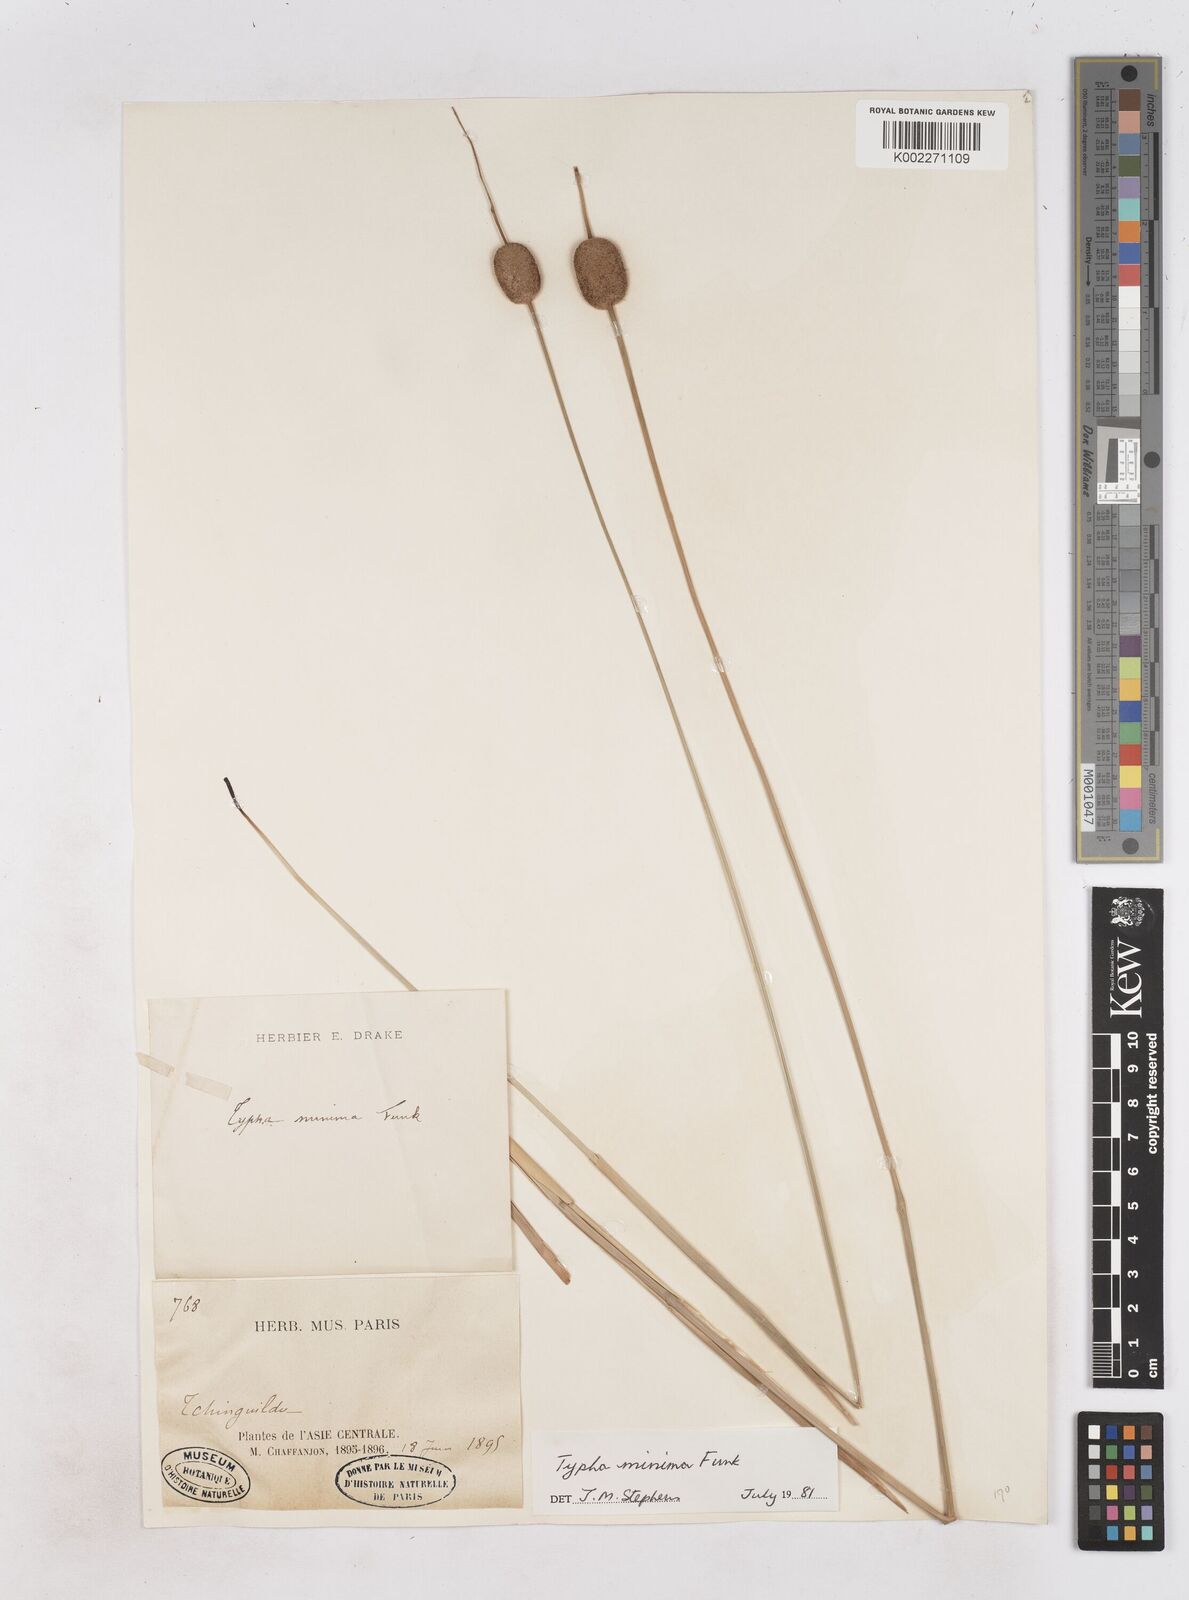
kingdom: Plantae
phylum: Tracheophyta
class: Liliopsida
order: Poales
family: Typhaceae
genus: Typha
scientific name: Typha minima
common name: Dwarf bulrush
